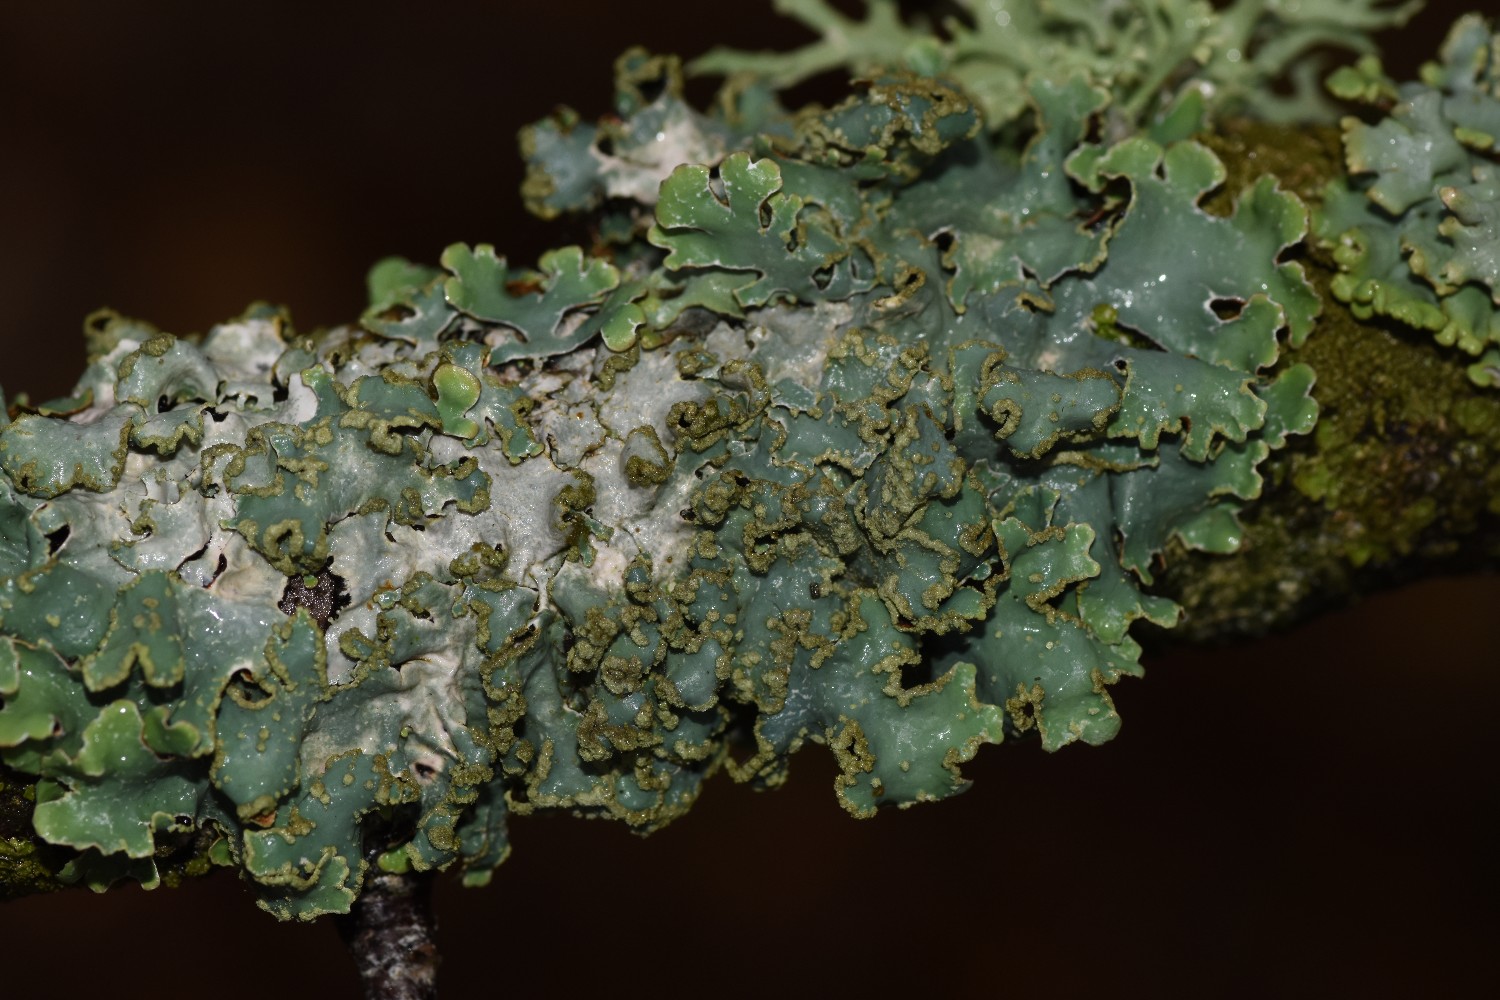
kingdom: Fungi
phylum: Ascomycota
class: Lecanoromycetes
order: Lecanorales
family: Parmeliaceae
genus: Parmelia
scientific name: Parmelia sulcata
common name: rynket skållav
